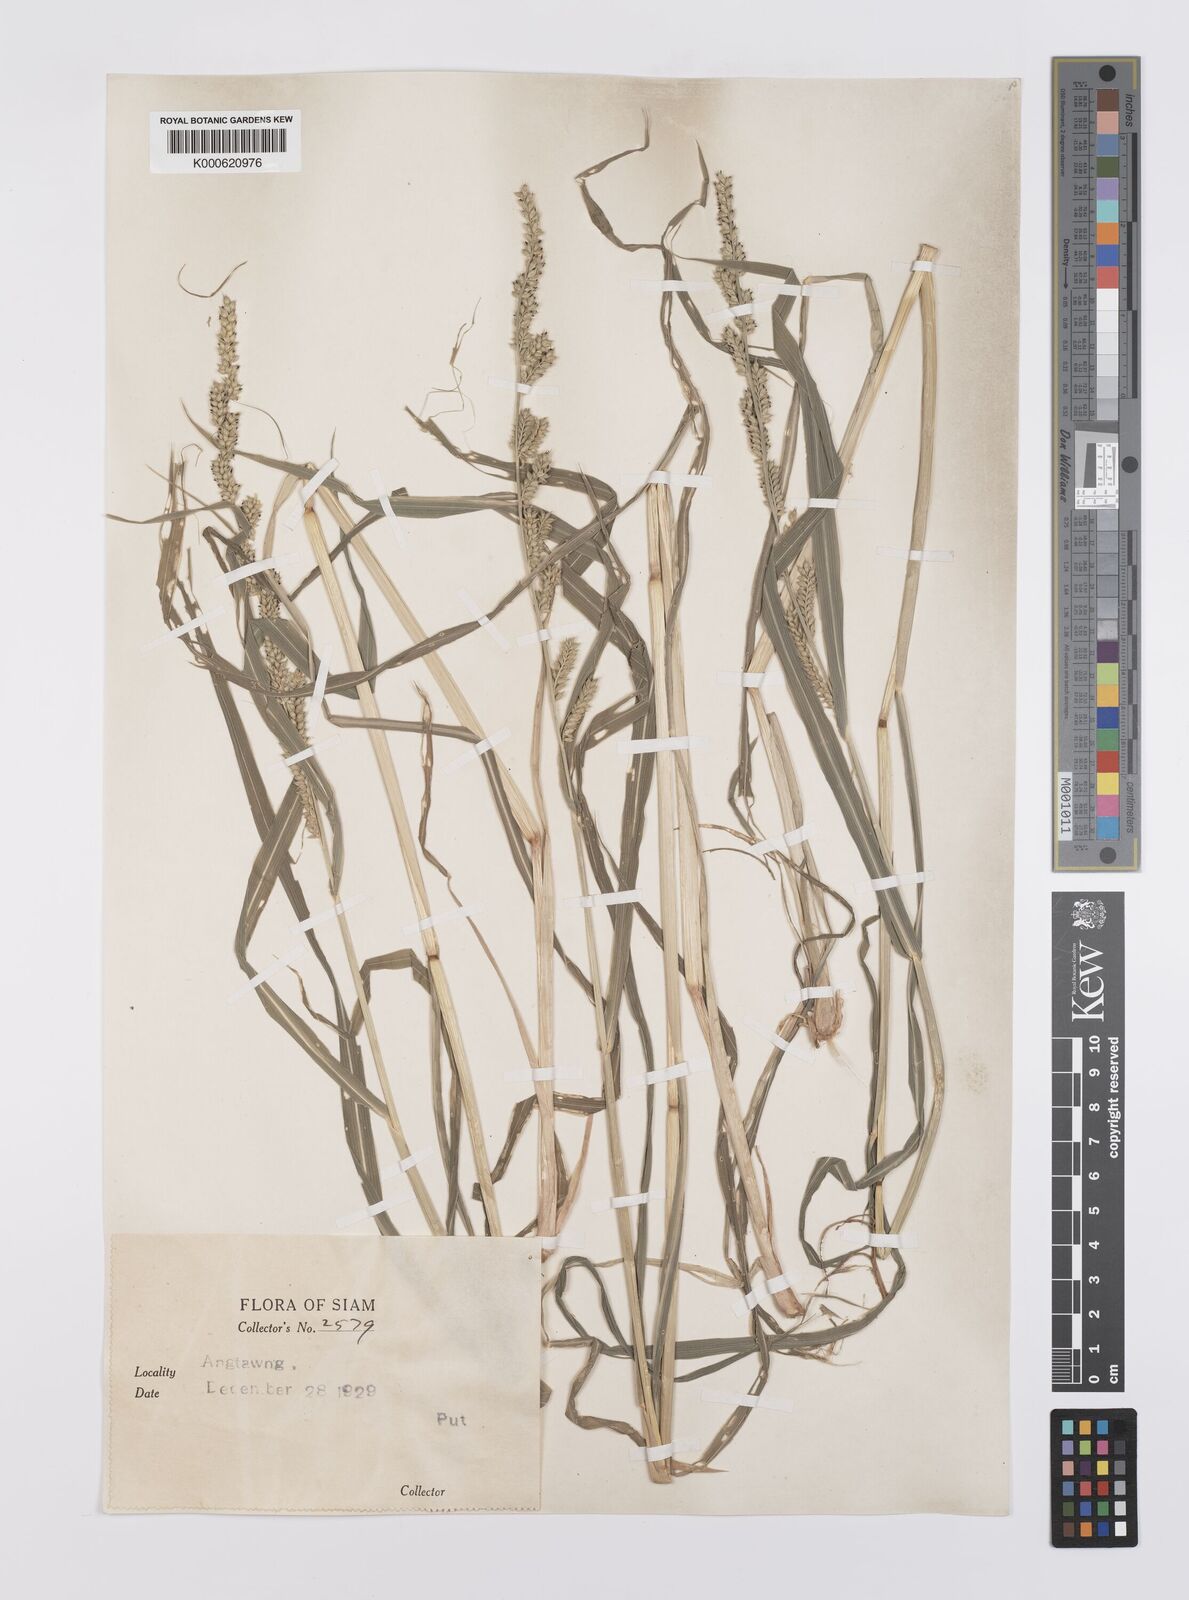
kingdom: Plantae
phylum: Tracheophyta
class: Liliopsida
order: Poales
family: Poaceae
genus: Echinochloa
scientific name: Echinochloa crus-galli
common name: Cockspur
